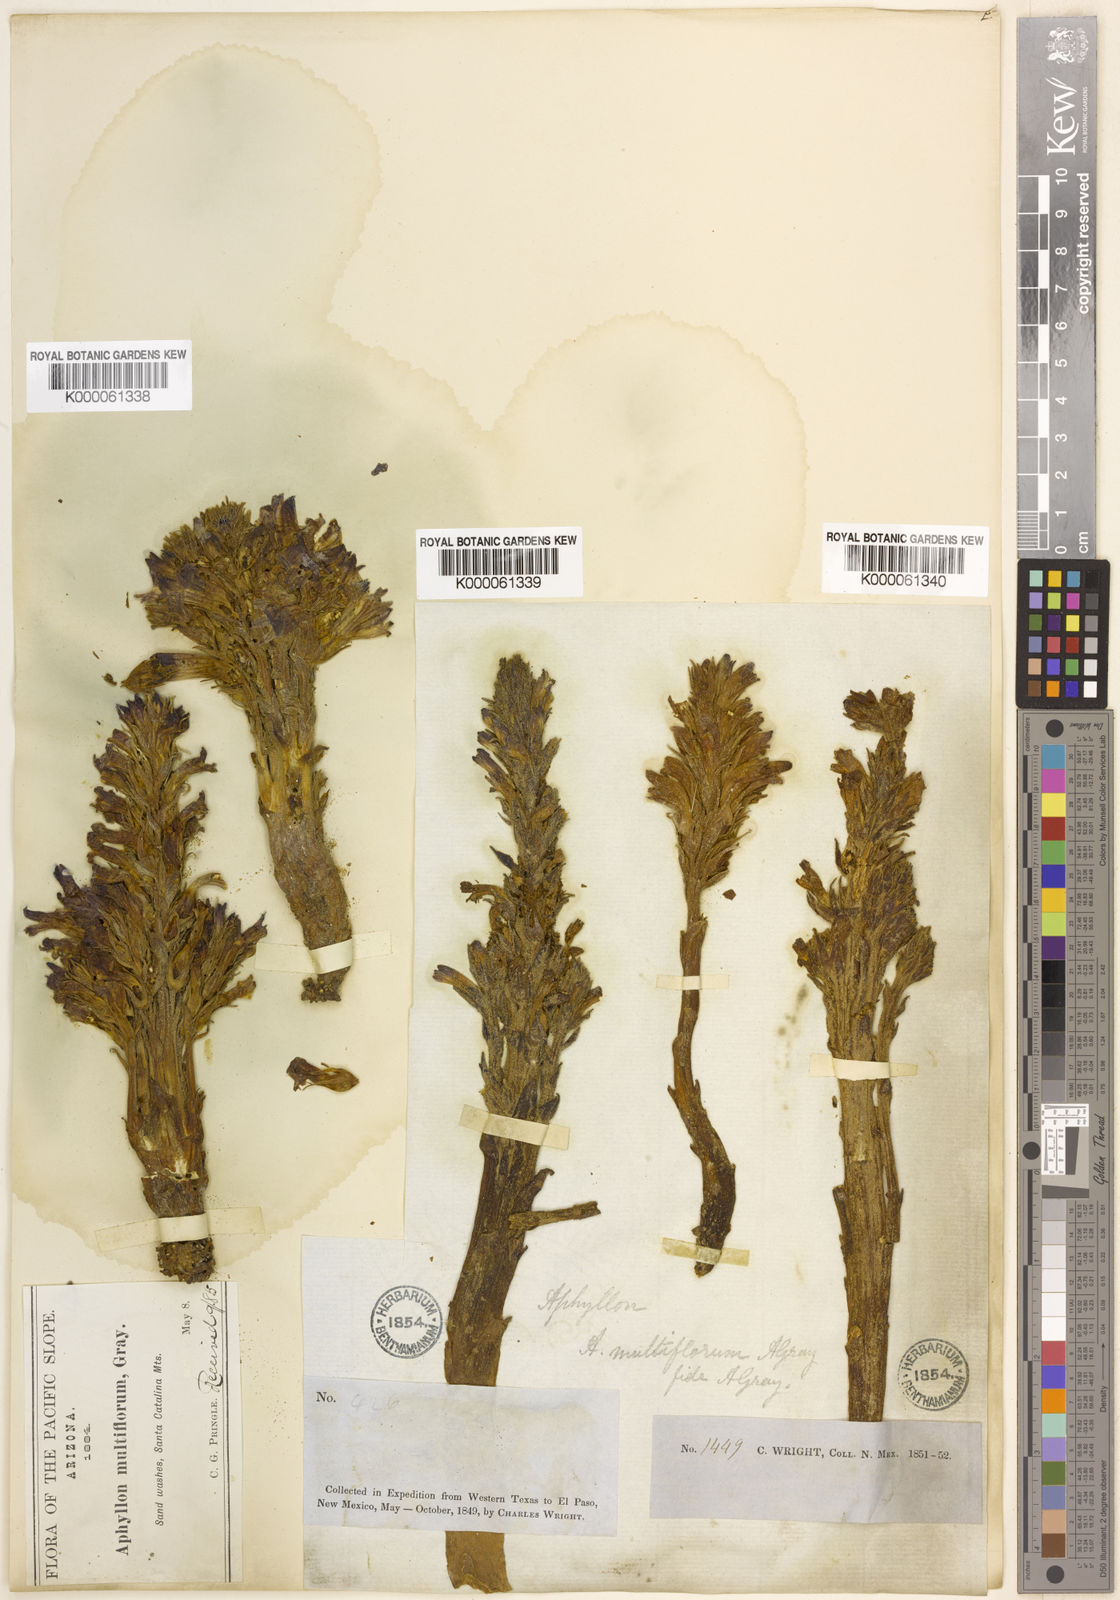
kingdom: Plantae
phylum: Tracheophyta
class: Magnoliopsida
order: Lamiales
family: Orobanchaceae
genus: Aphyllon
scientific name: Aphyllon multiflorum
